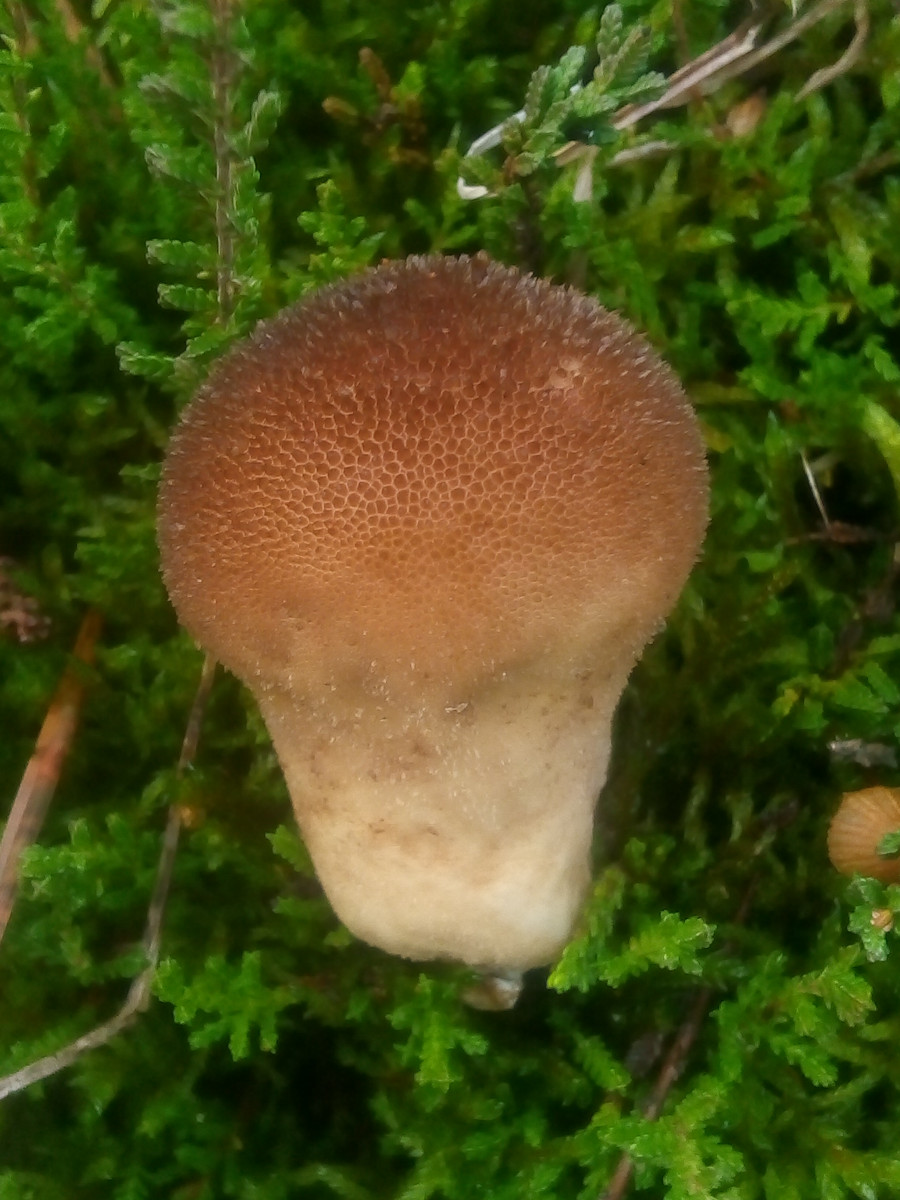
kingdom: Fungi
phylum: Basidiomycota
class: Agaricomycetes
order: Agaricales
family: Lycoperdaceae
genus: Lycoperdon
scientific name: Lycoperdon nigrescens
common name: sortagtig støvbold
